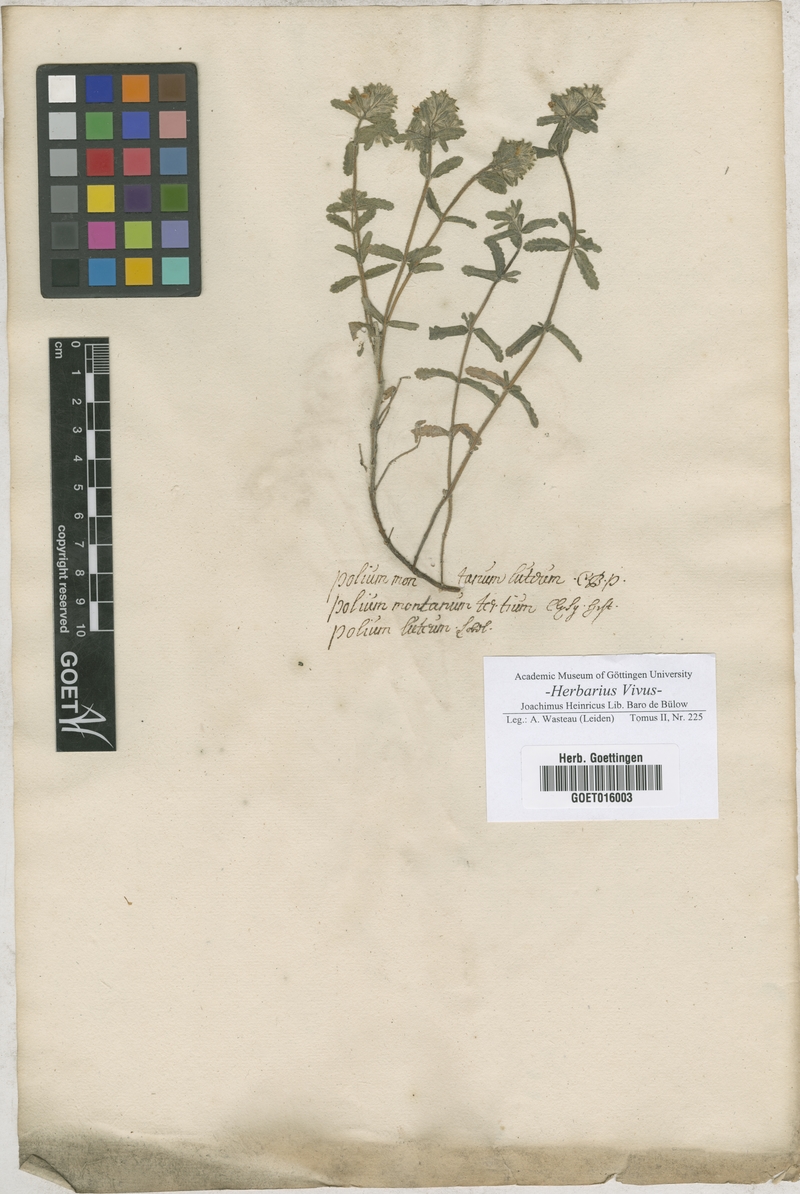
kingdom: Plantae
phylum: Tracheophyta
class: Magnoliopsida
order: Lamiales
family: Lamiaceae
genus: Teucrium
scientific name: Teucrium polium
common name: Poley
